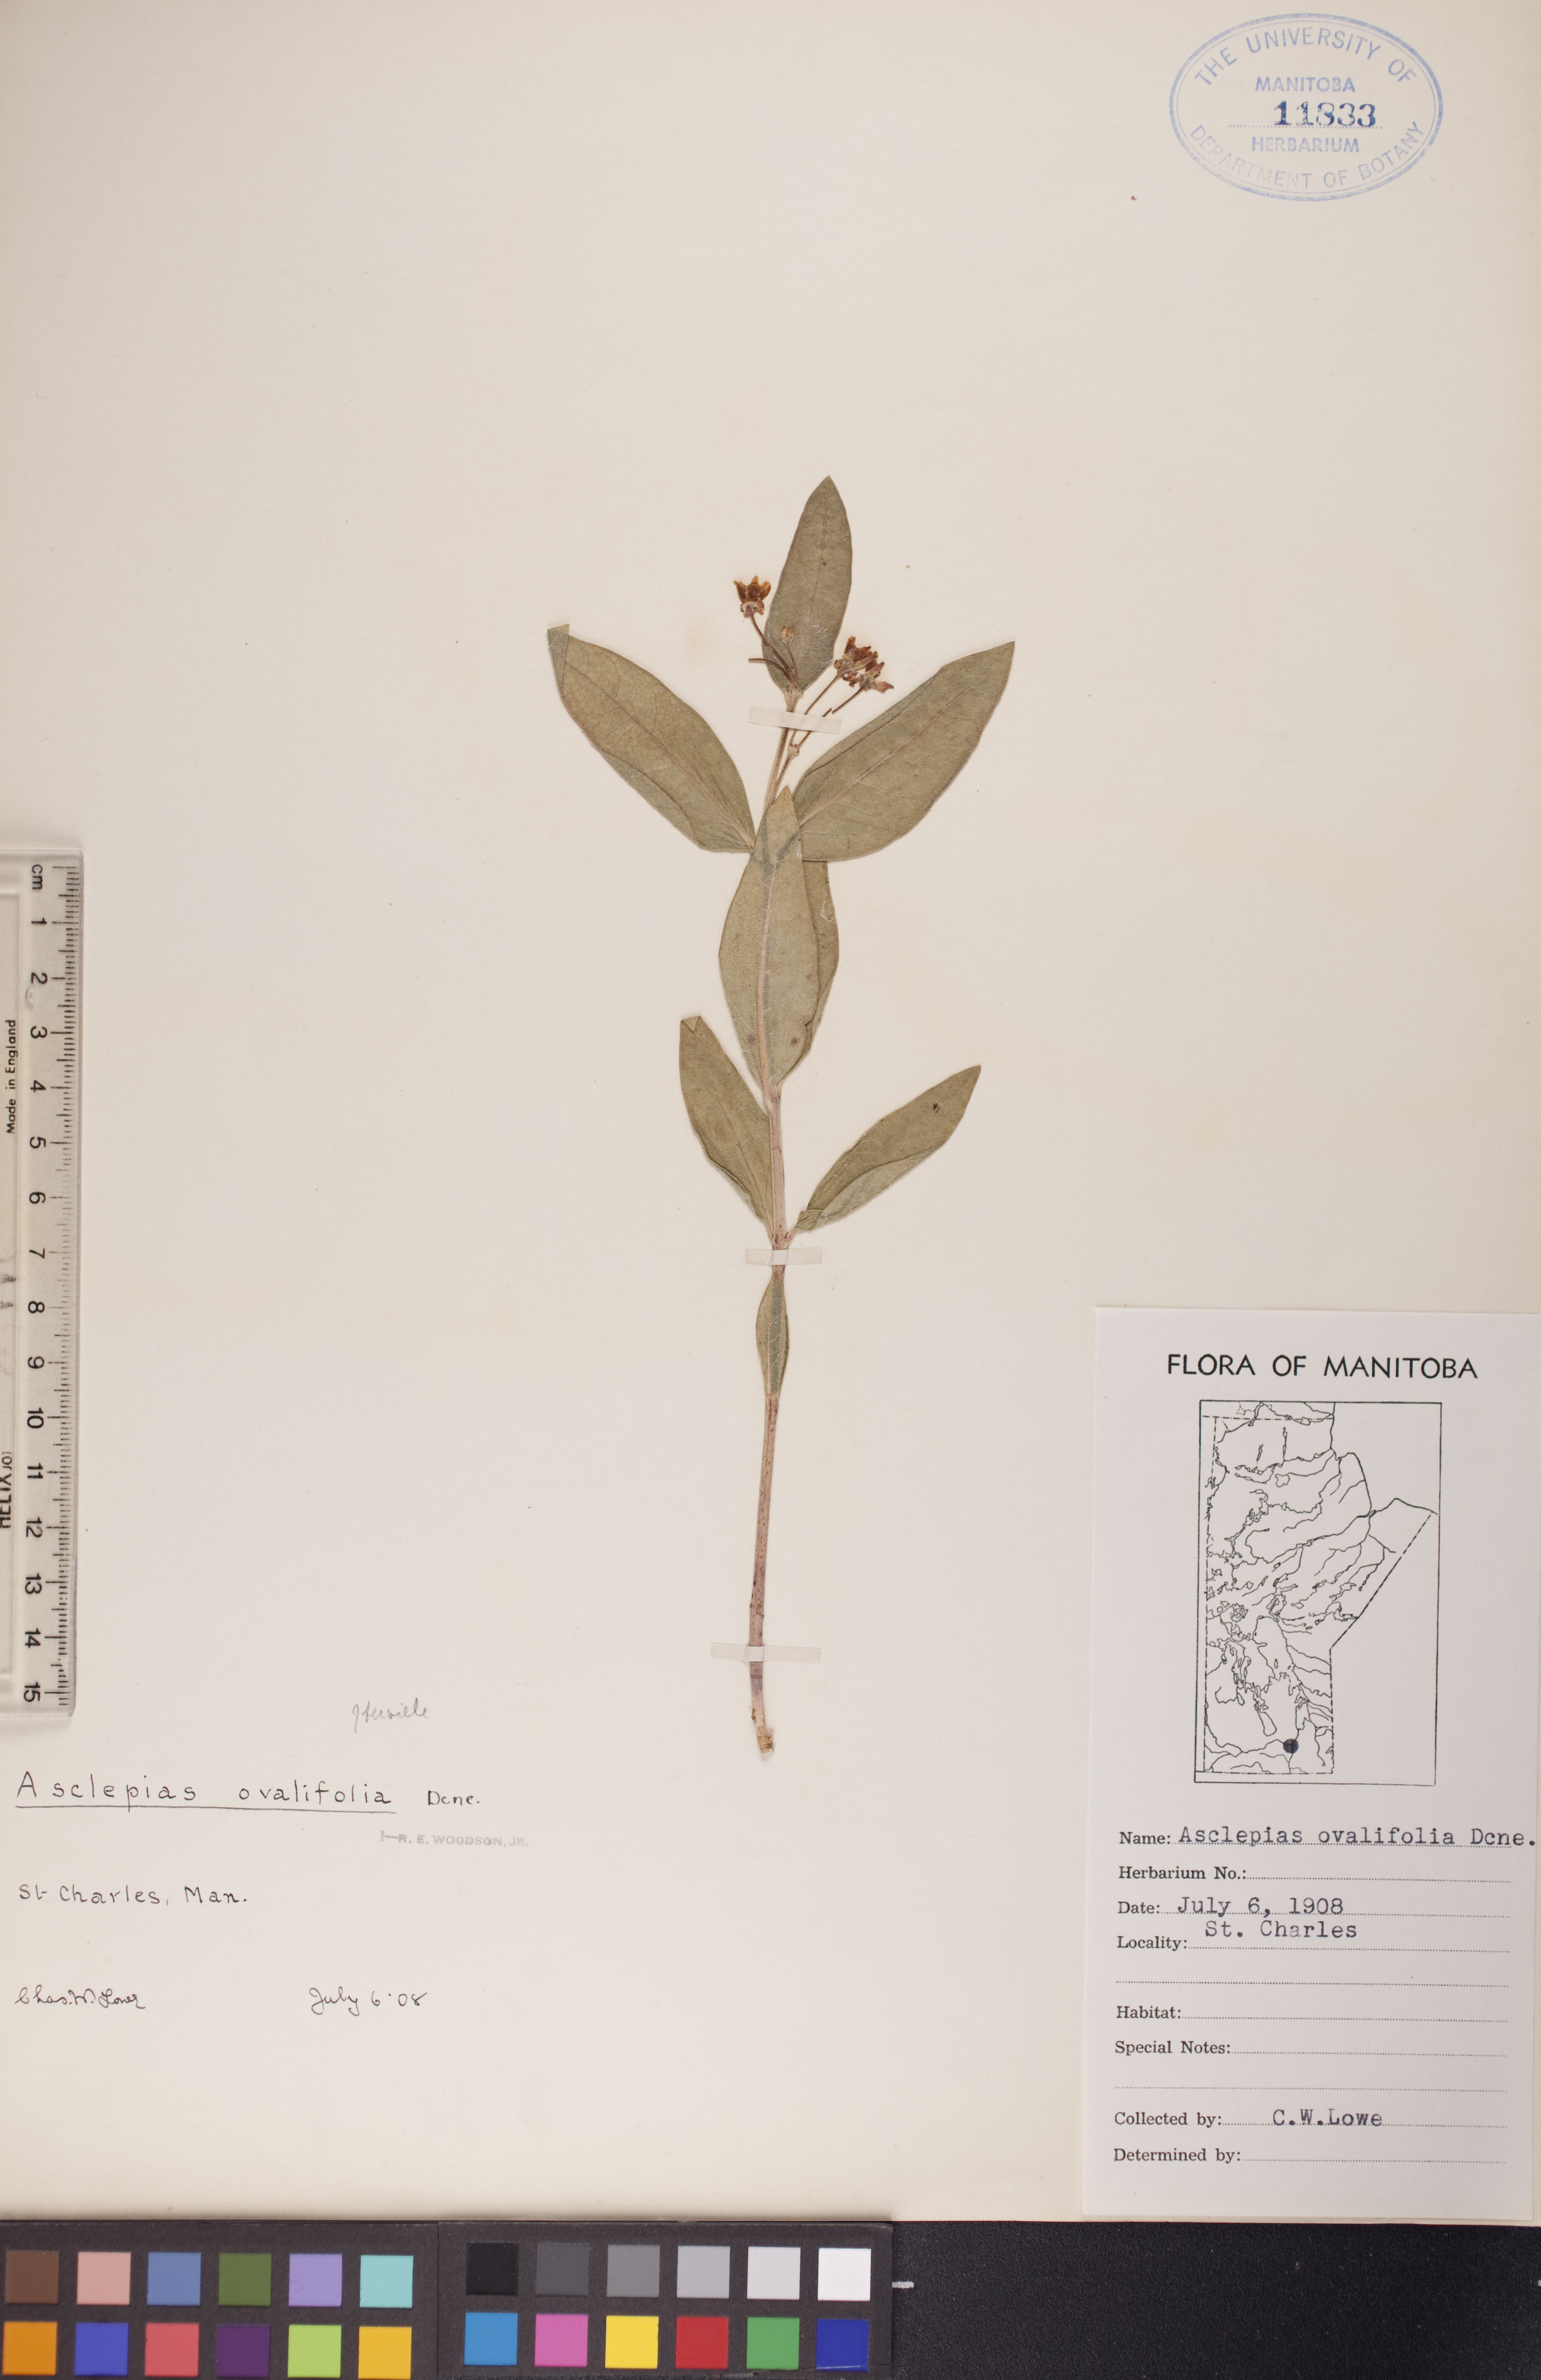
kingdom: Plantae
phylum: Tracheophyta
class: Magnoliopsida
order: Gentianales
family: Apocynaceae
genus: Asclepias
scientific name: Asclepias ovalifolia
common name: Dwarf milkweed
